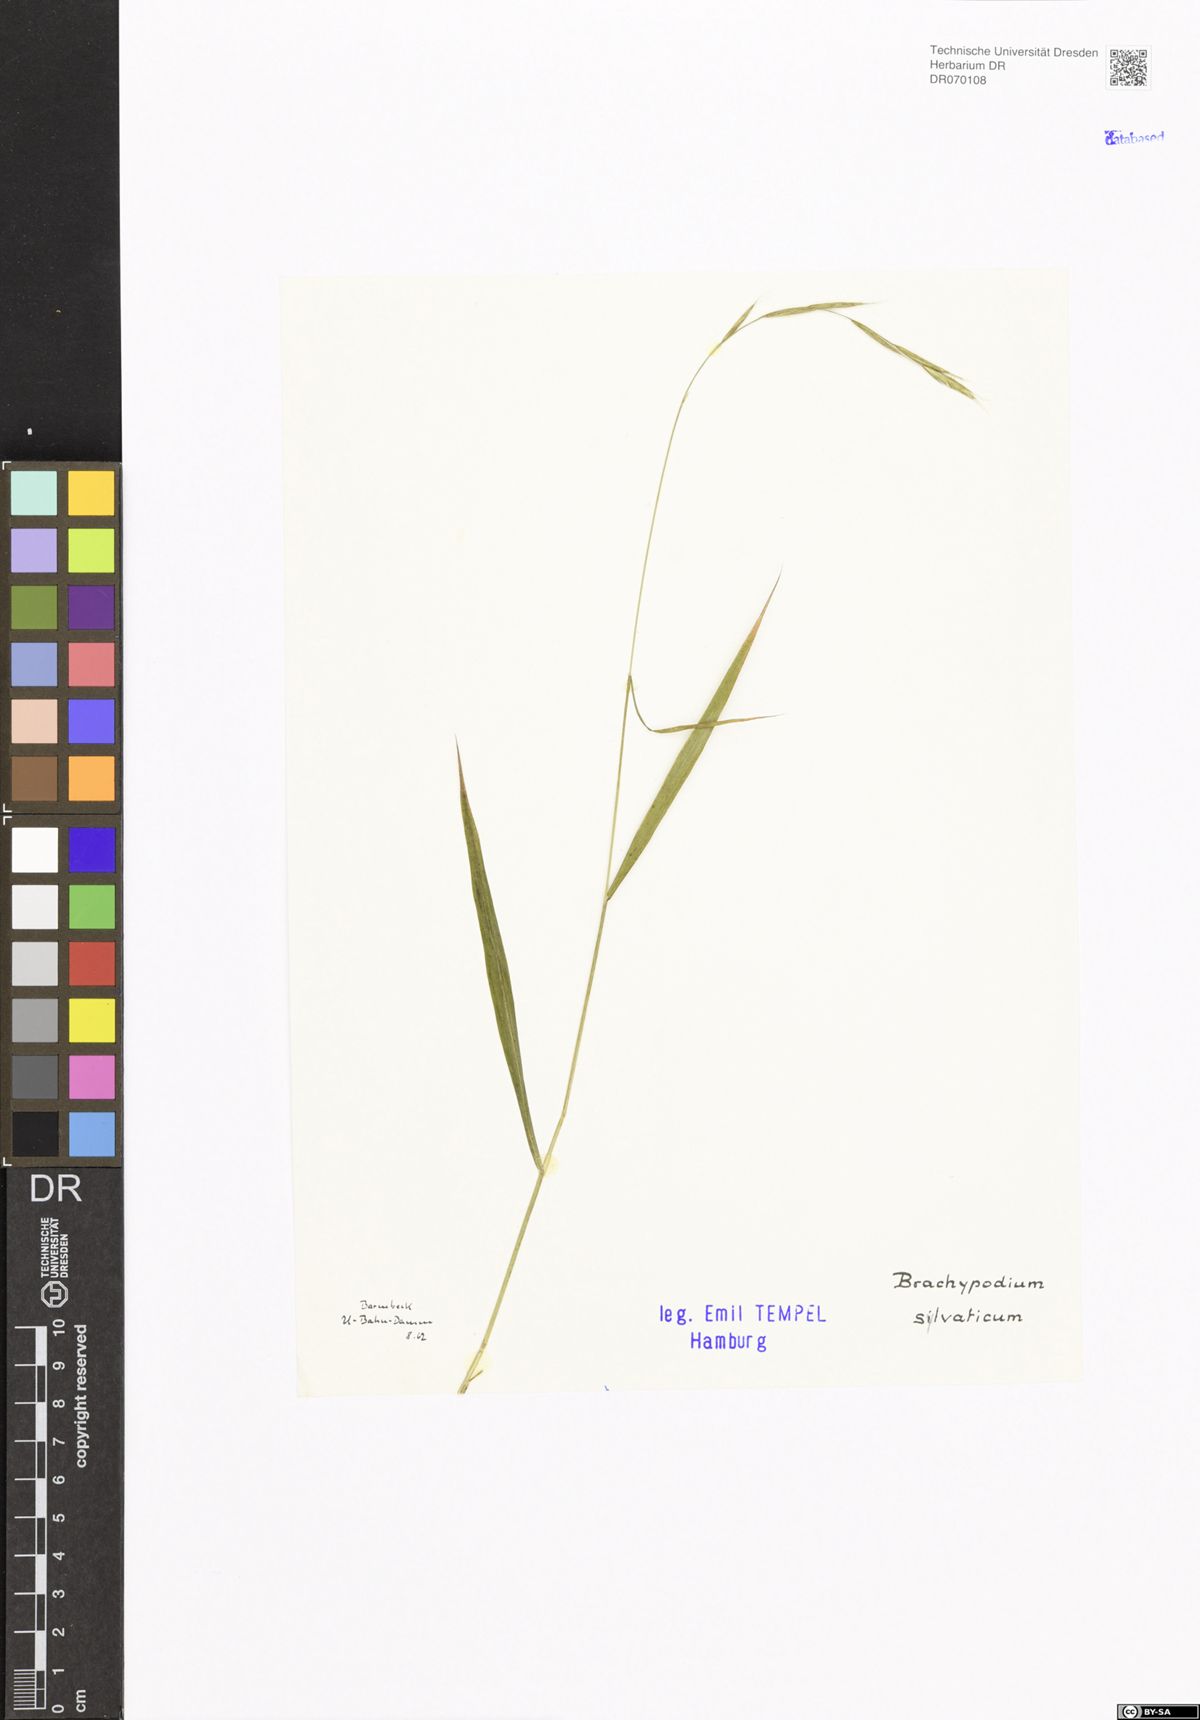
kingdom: Plantae
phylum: Tracheophyta
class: Liliopsida
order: Poales
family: Poaceae
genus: Brachypodium
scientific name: Brachypodium sylvaticum
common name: False-brome
